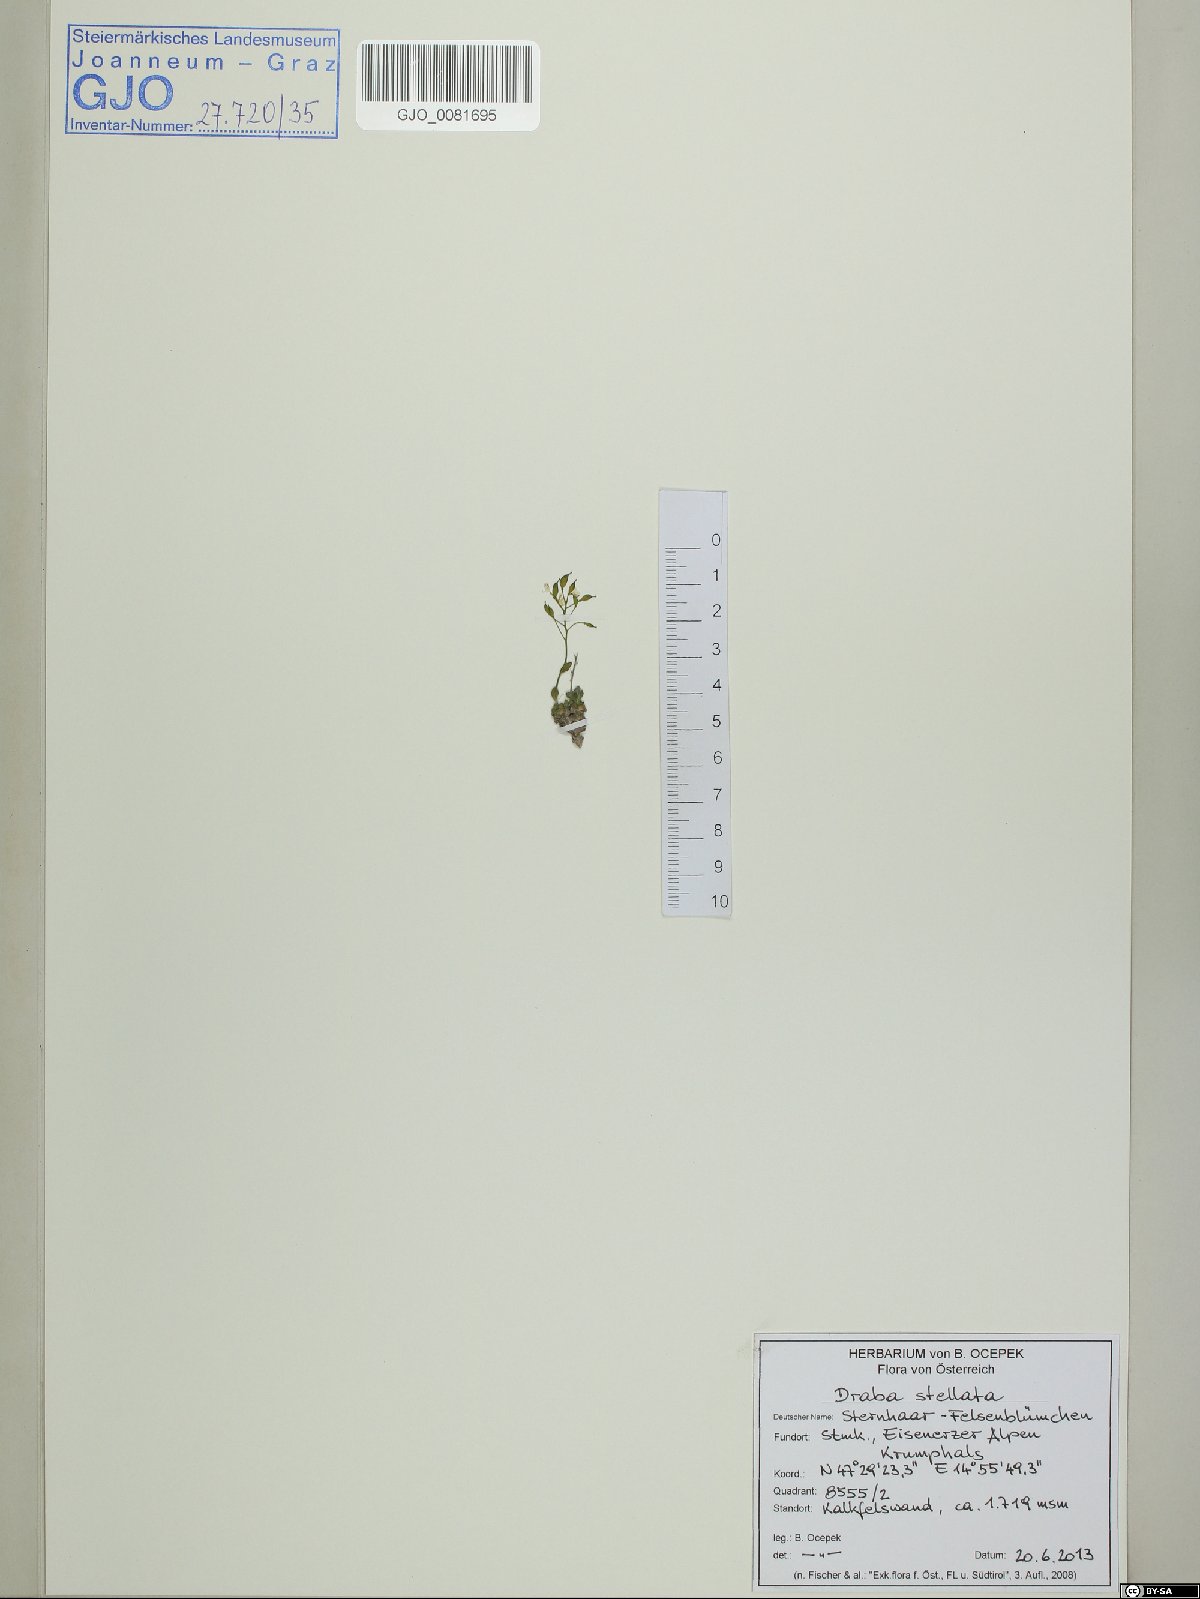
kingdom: Plantae
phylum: Tracheophyta
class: Magnoliopsida
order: Brassicales
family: Brassicaceae
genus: Draba
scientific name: Draba stellata
